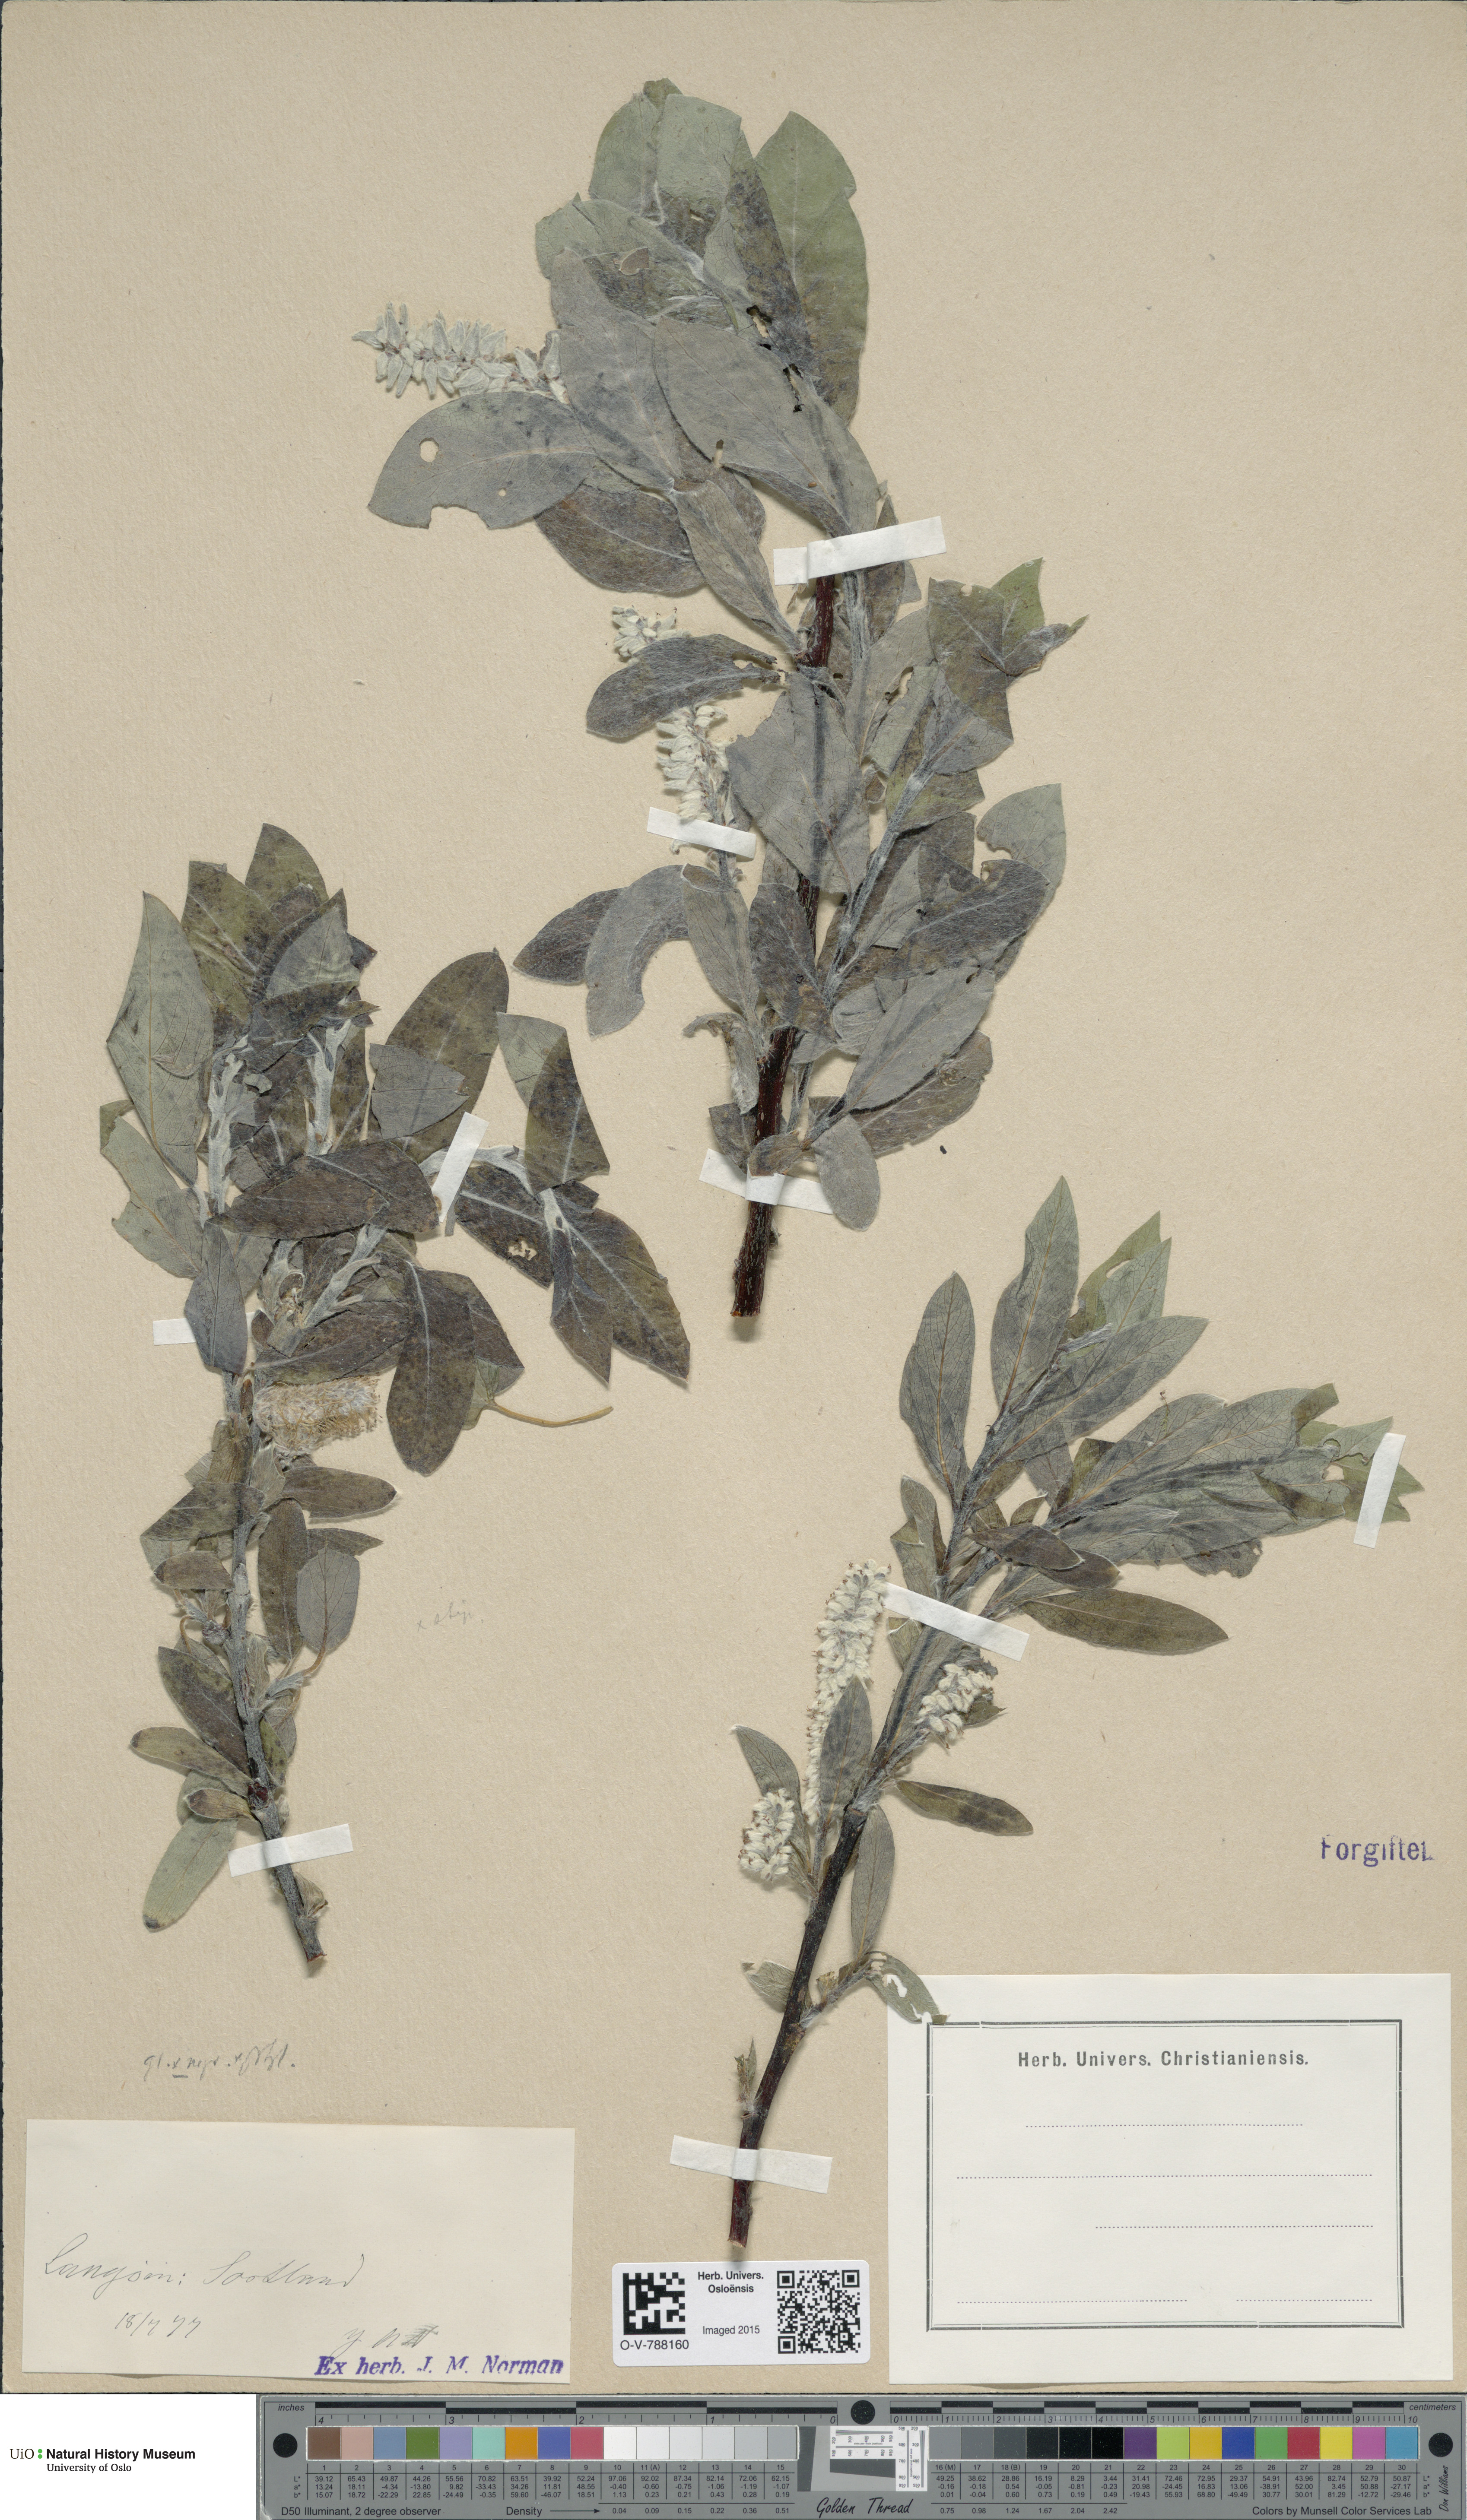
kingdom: Plantae
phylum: Tracheophyta
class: Magnoliopsida
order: Malpighiales
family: Salicaceae
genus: Salix
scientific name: Salix
